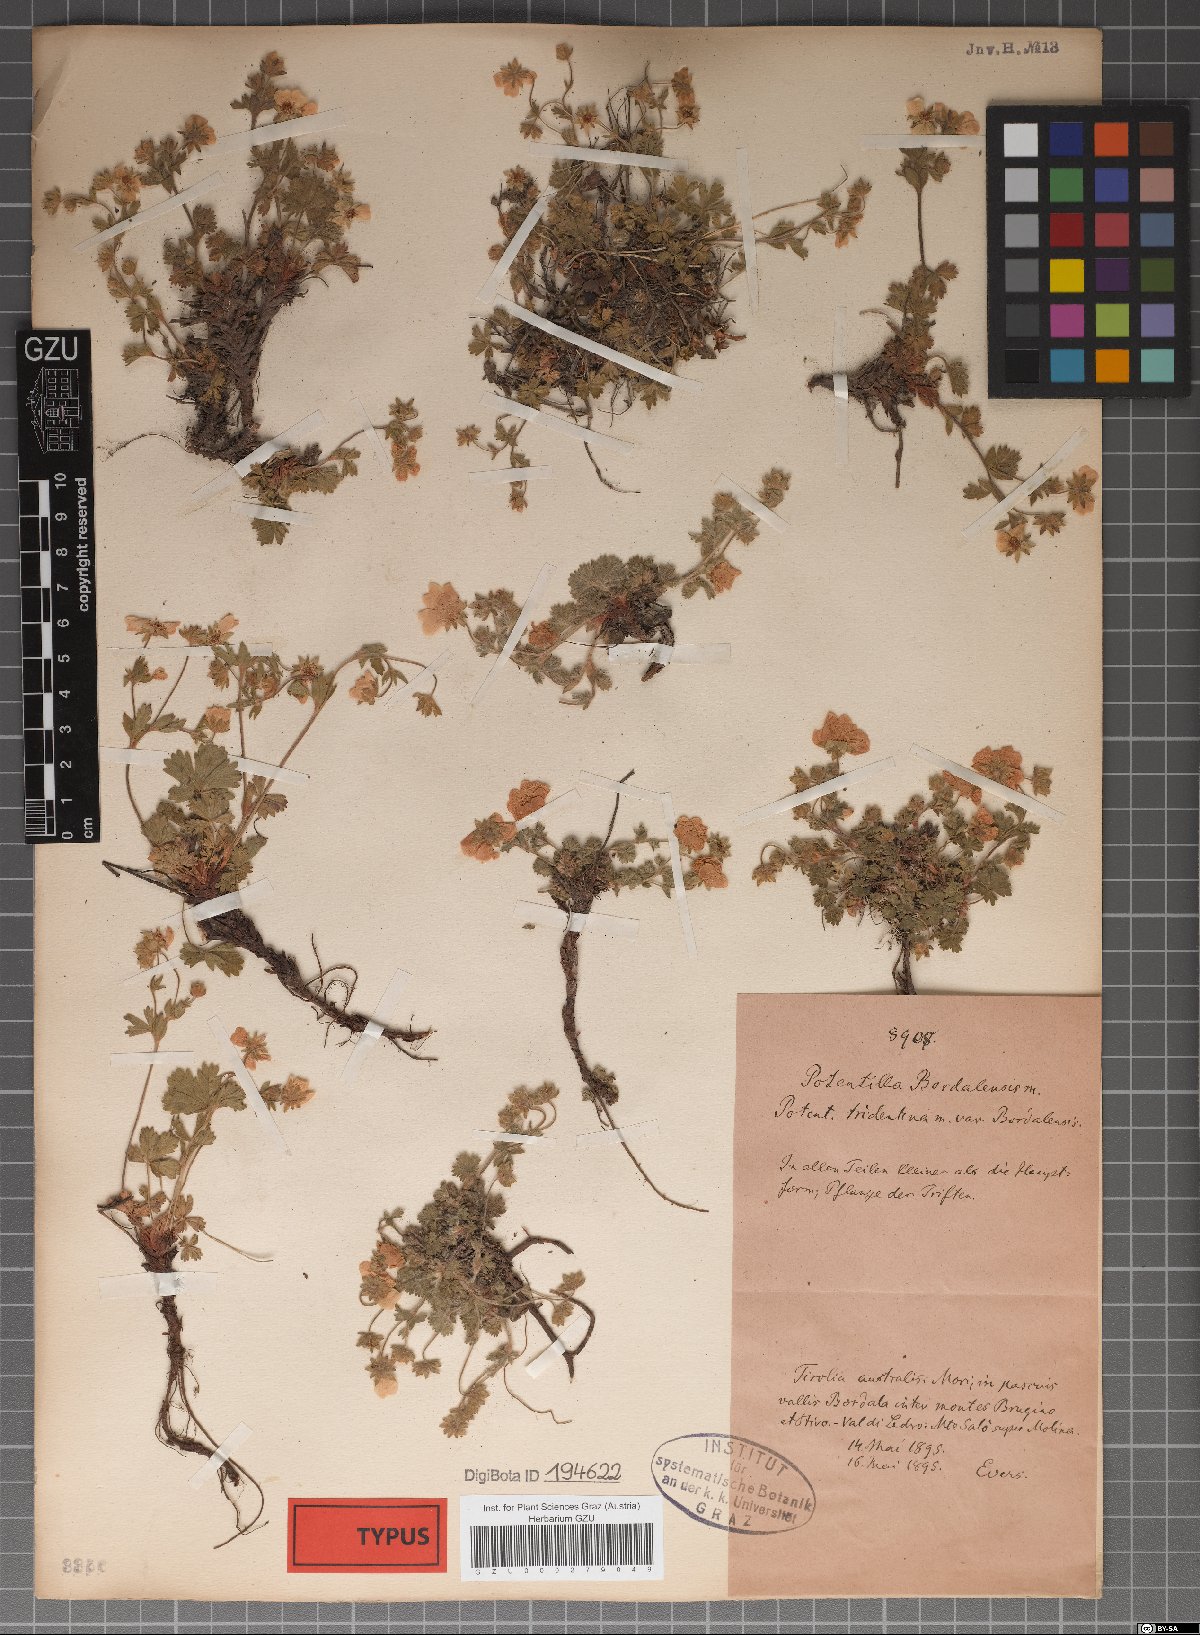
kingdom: Plantae
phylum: Tracheophyta
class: Magnoliopsida
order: Rosales
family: Rosaceae
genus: Potentilla
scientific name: Potentilla crantzii
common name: Alpine cinquefoil
